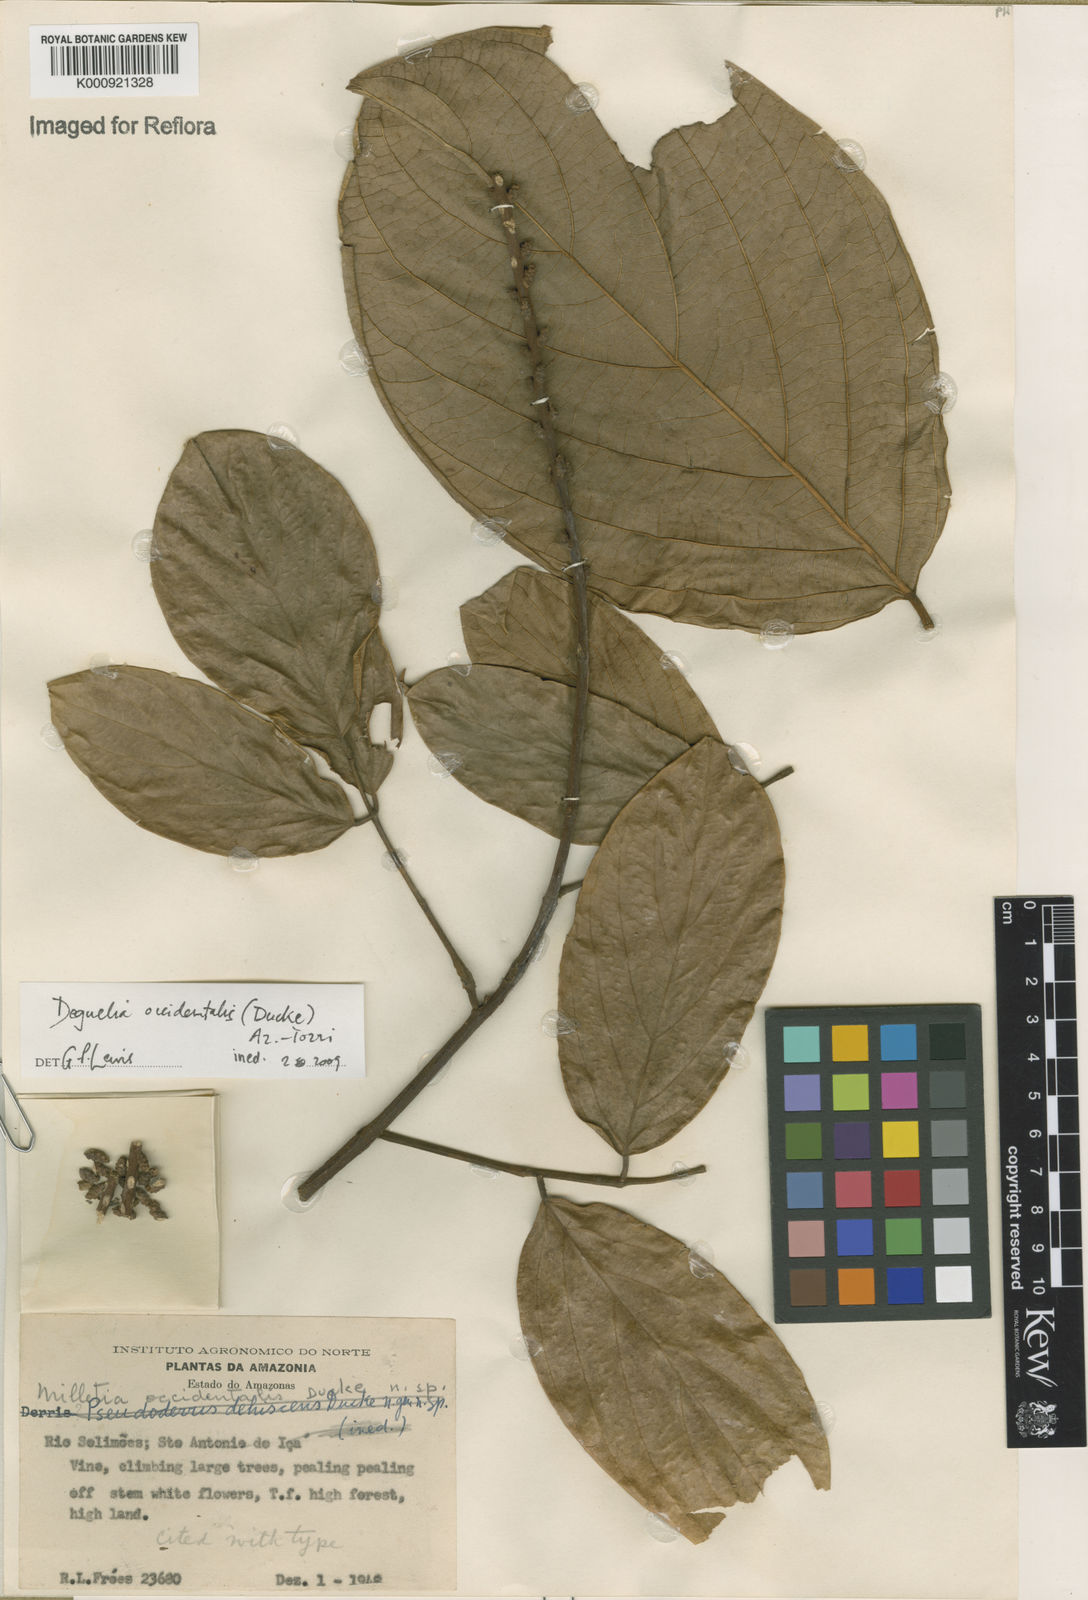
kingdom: Plantae
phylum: Tracheophyta
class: Magnoliopsida
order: Fabales
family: Fabaceae
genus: Deguelia
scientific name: Deguelia occidentalis
